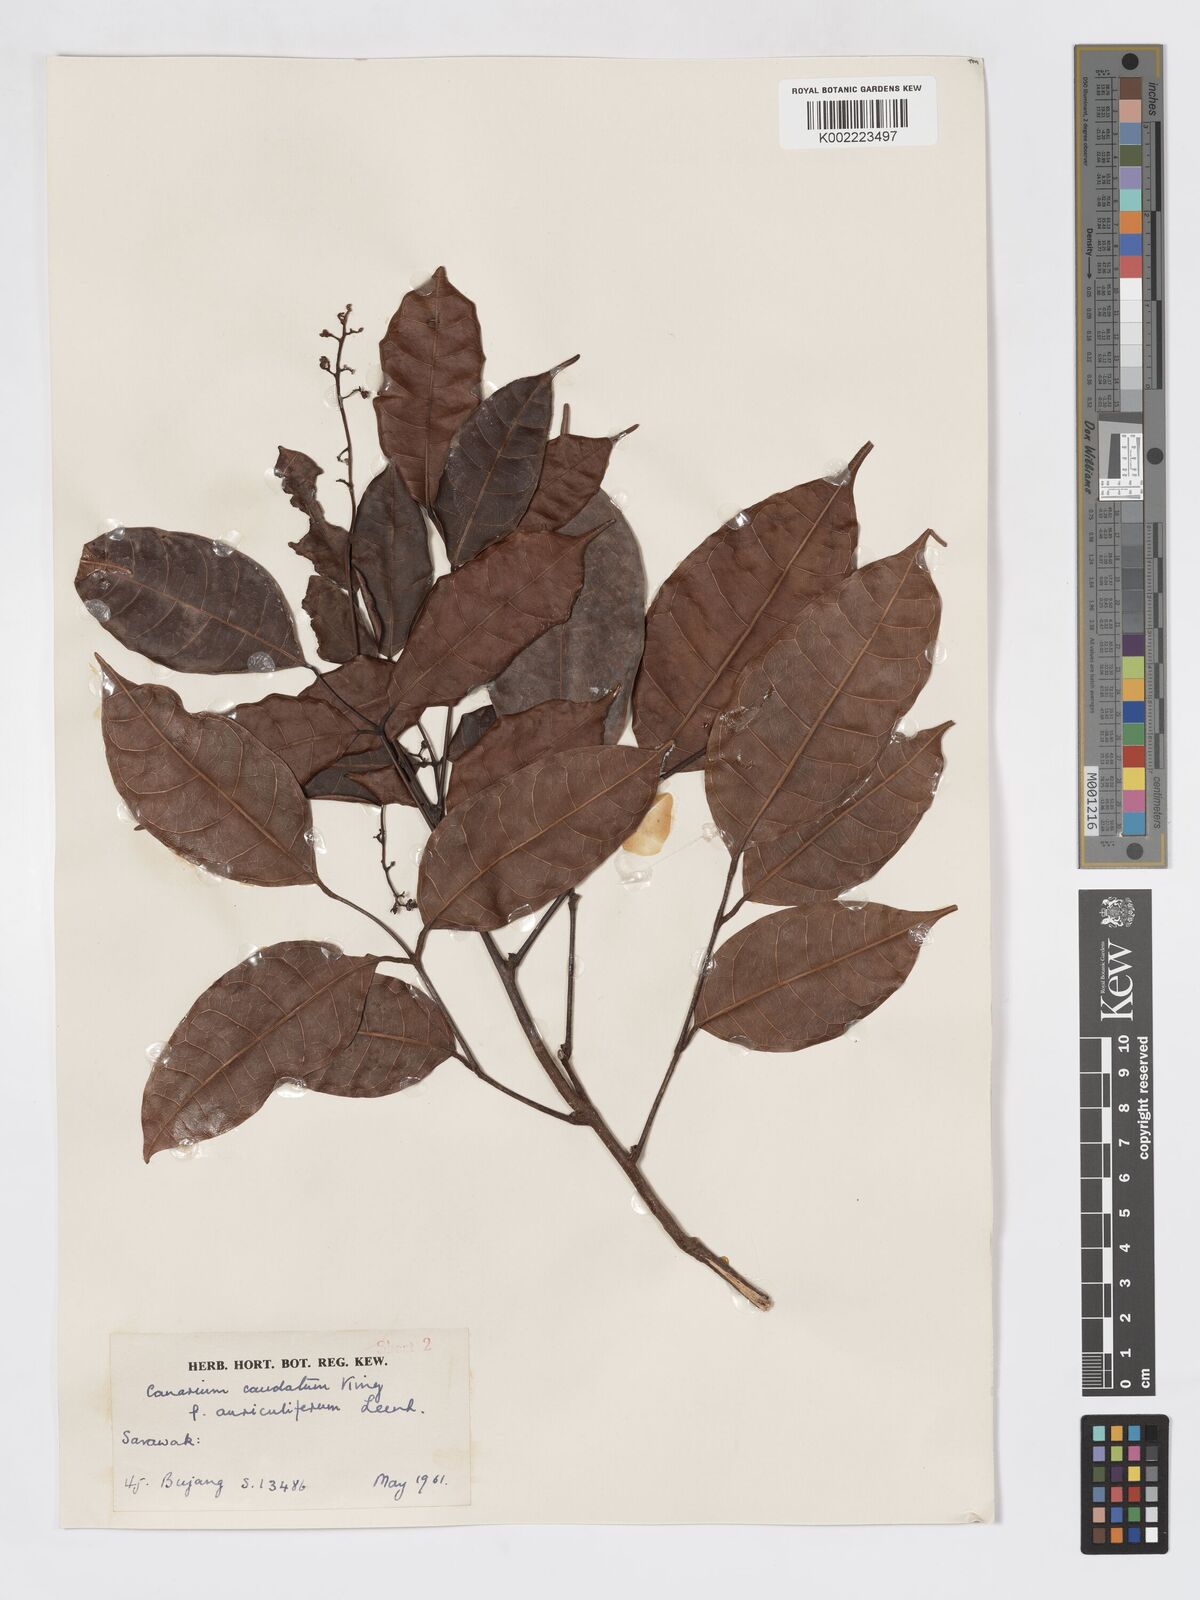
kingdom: Plantae
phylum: Tracheophyta
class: Magnoliopsida
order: Sapindales
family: Burseraceae
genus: Canarium
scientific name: Canarium caudatum
